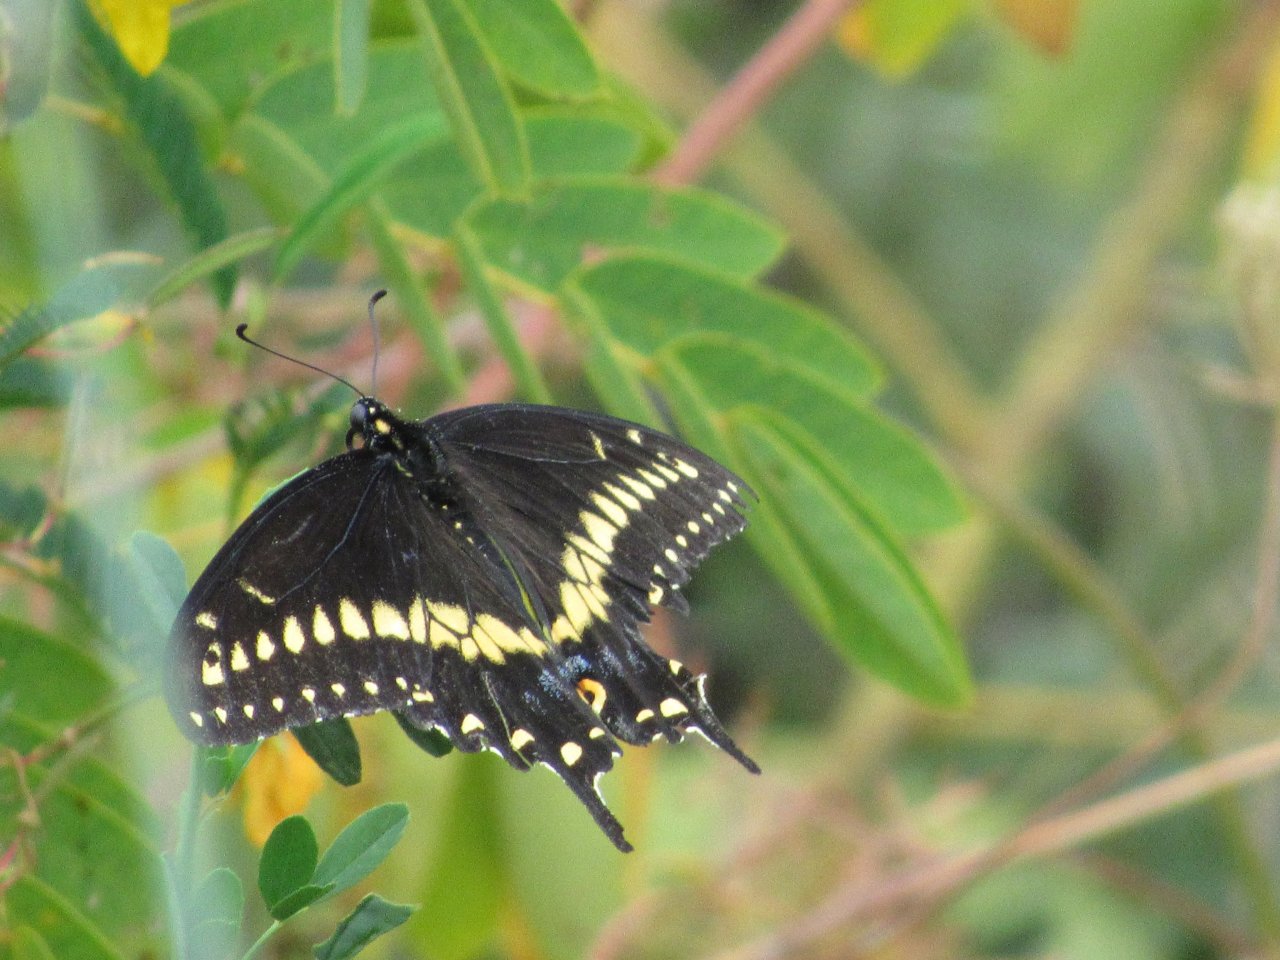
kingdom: Animalia
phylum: Arthropoda
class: Insecta
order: Lepidoptera
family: Papilionidae
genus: Papilio
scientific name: Papilio polyxenes
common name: Black Swallowtail
